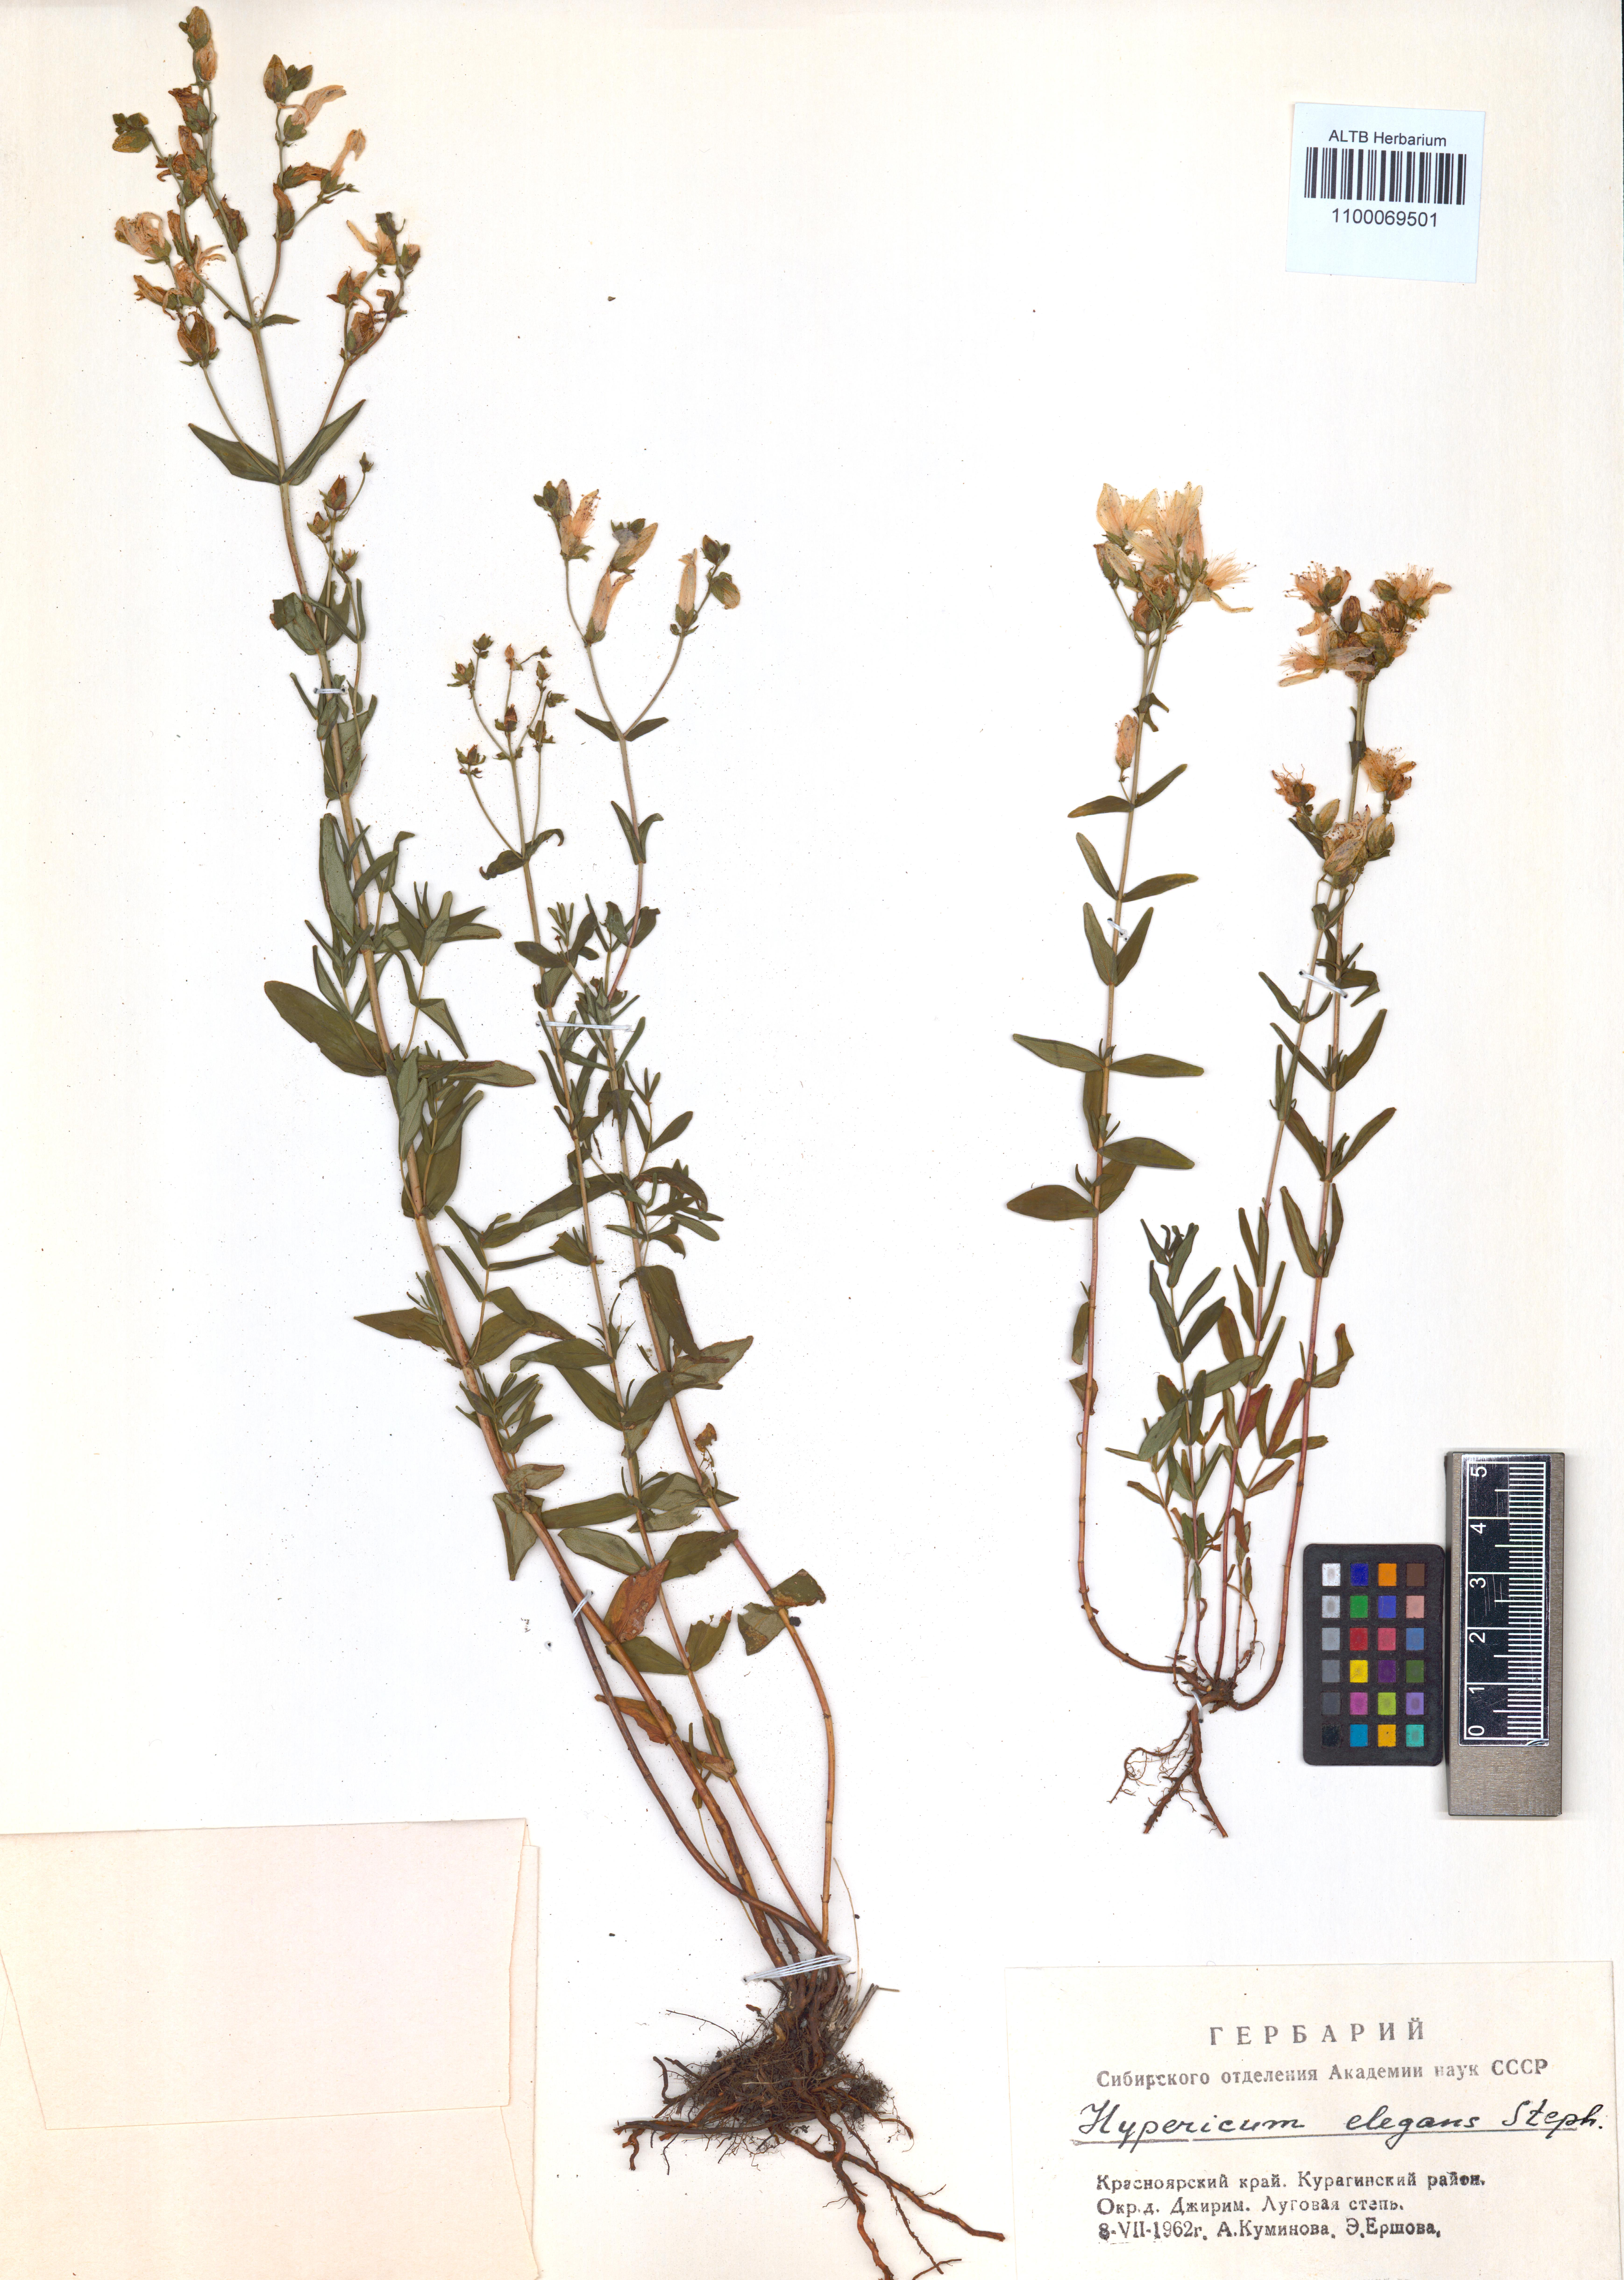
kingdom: Plantae
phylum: Tracheophyta
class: Magnoliopsida
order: Malpighiales
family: Hypericaceae
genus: Hypericum
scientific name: Hypericum elegans
